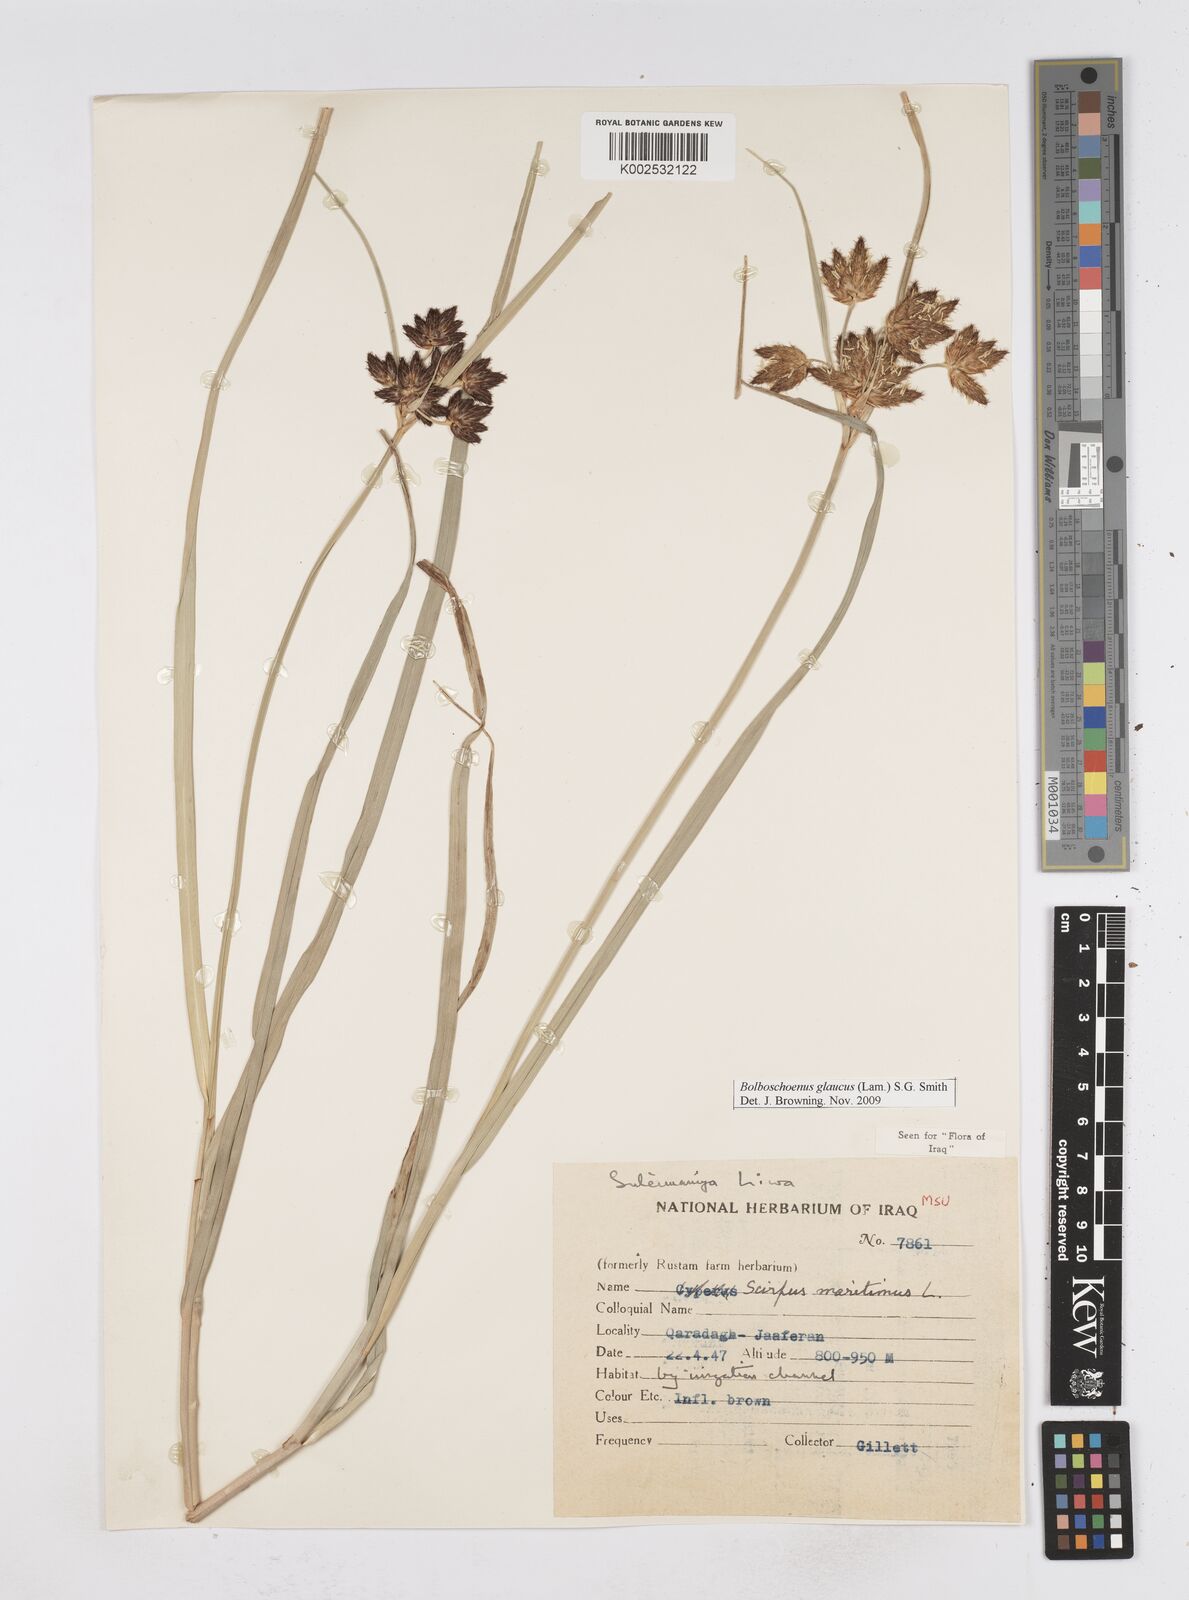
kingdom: Plantae
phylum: Tracheophyta
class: Liliopsida
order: Poales
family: Cyperaceae
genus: Bolboschoenus
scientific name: Bolboschoenus maritimus
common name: Sea club-rush
